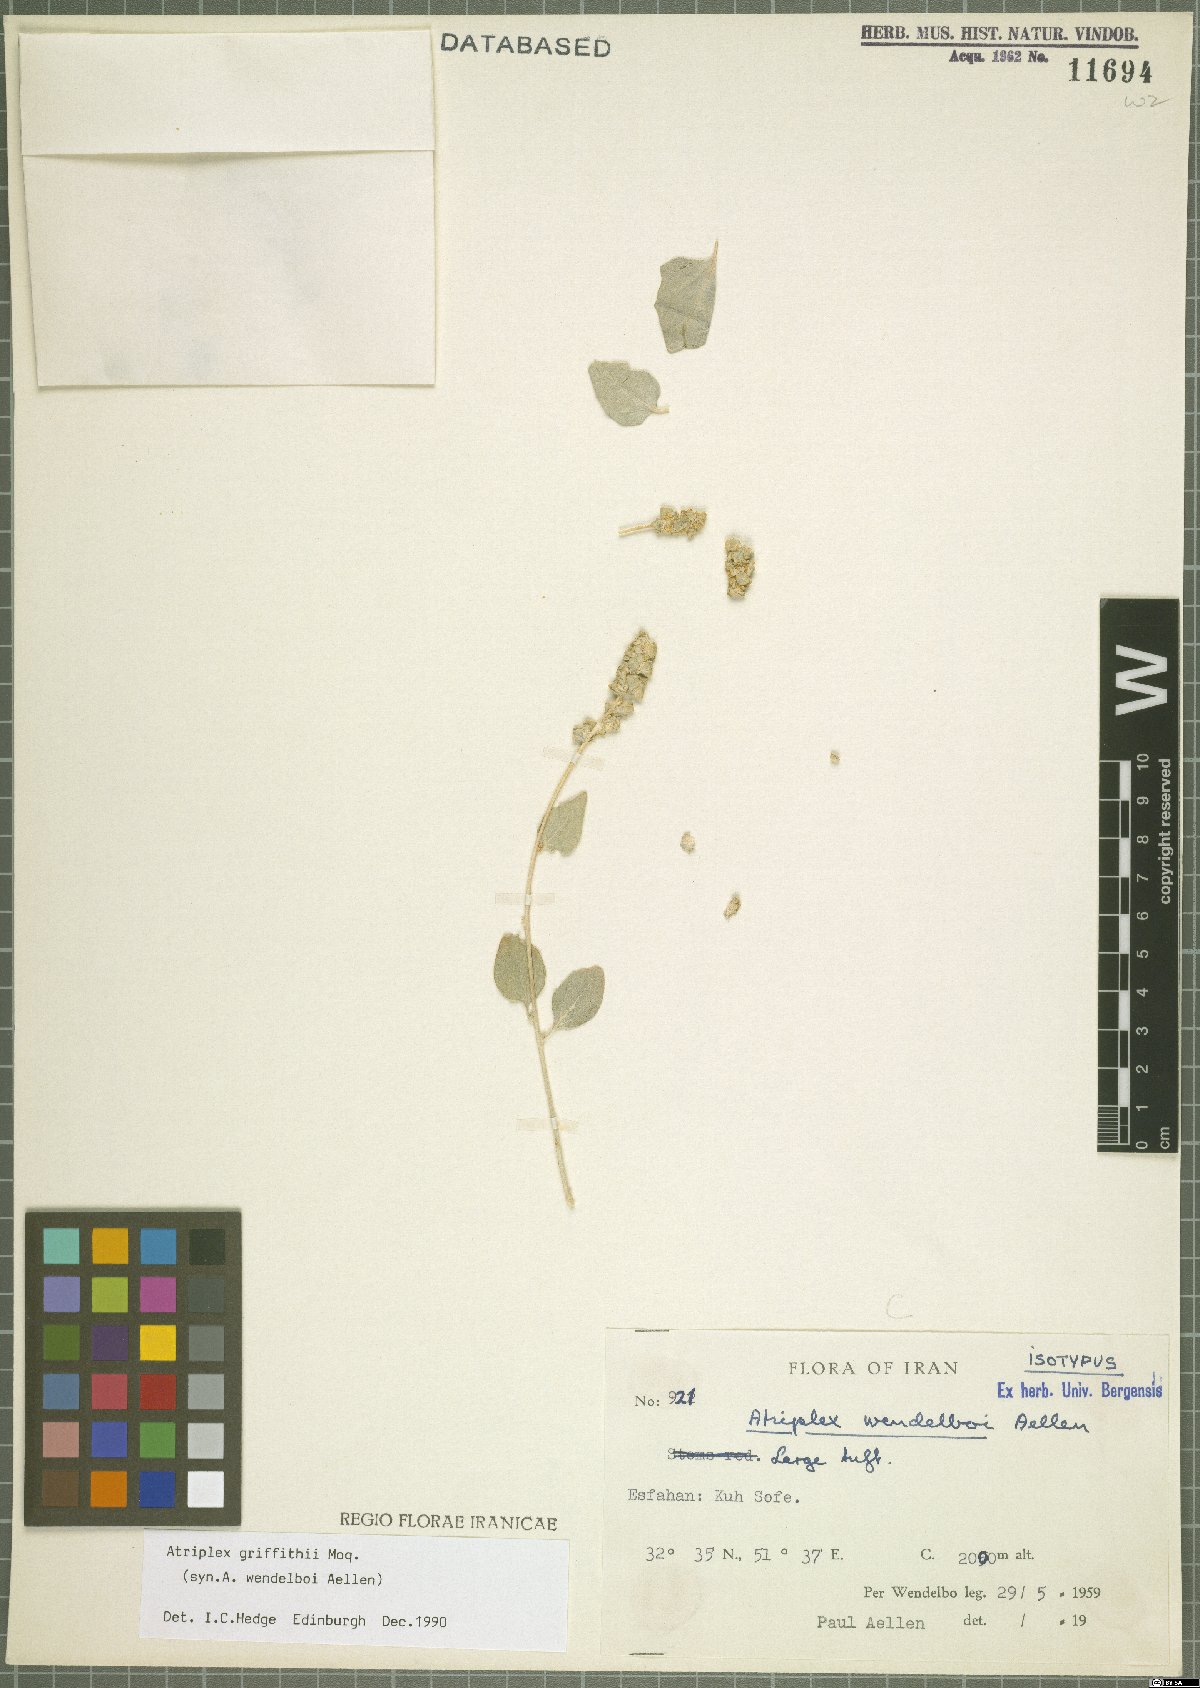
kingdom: Plantae
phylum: Tracheophyta
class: Magnoliopsida
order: Caryophyllales
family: Amaranthaceae
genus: Atriplex
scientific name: Atriplex griffithii
